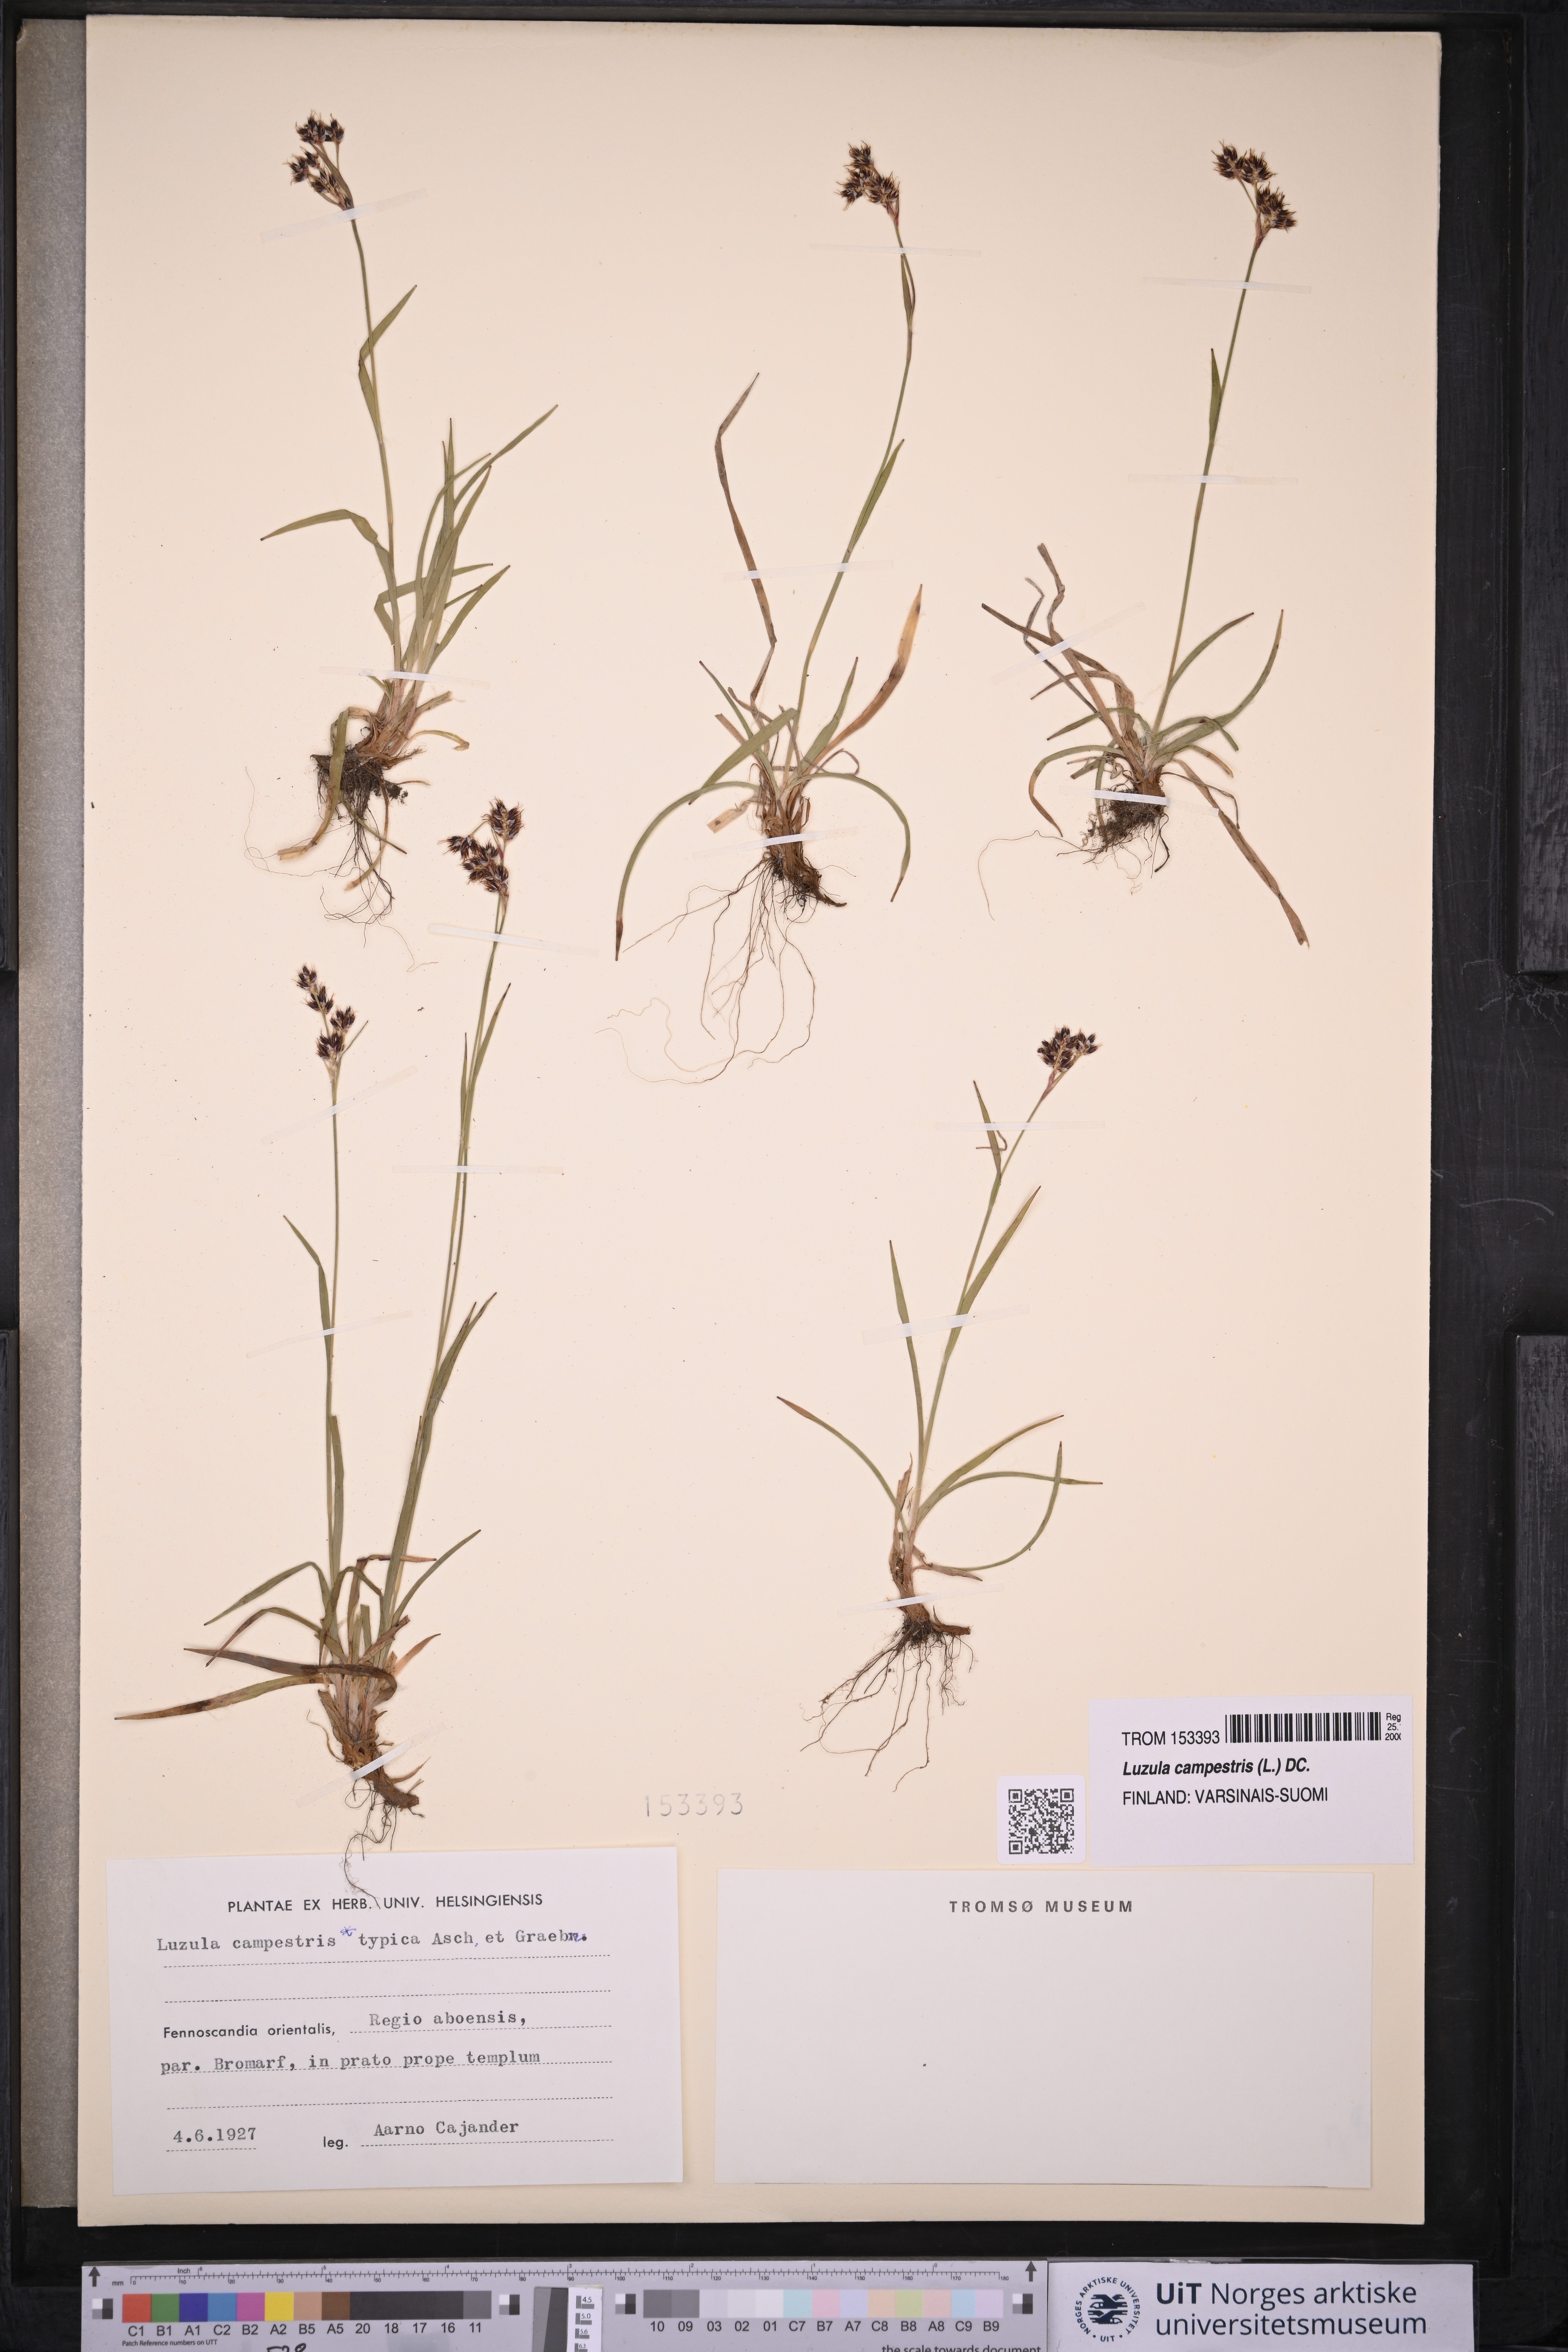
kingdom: Plantae
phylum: Tracheophyta
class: Liliopsida
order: Poales
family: Juncaceae
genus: Luzula
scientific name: Luzula campestris
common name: Field wood-rush
